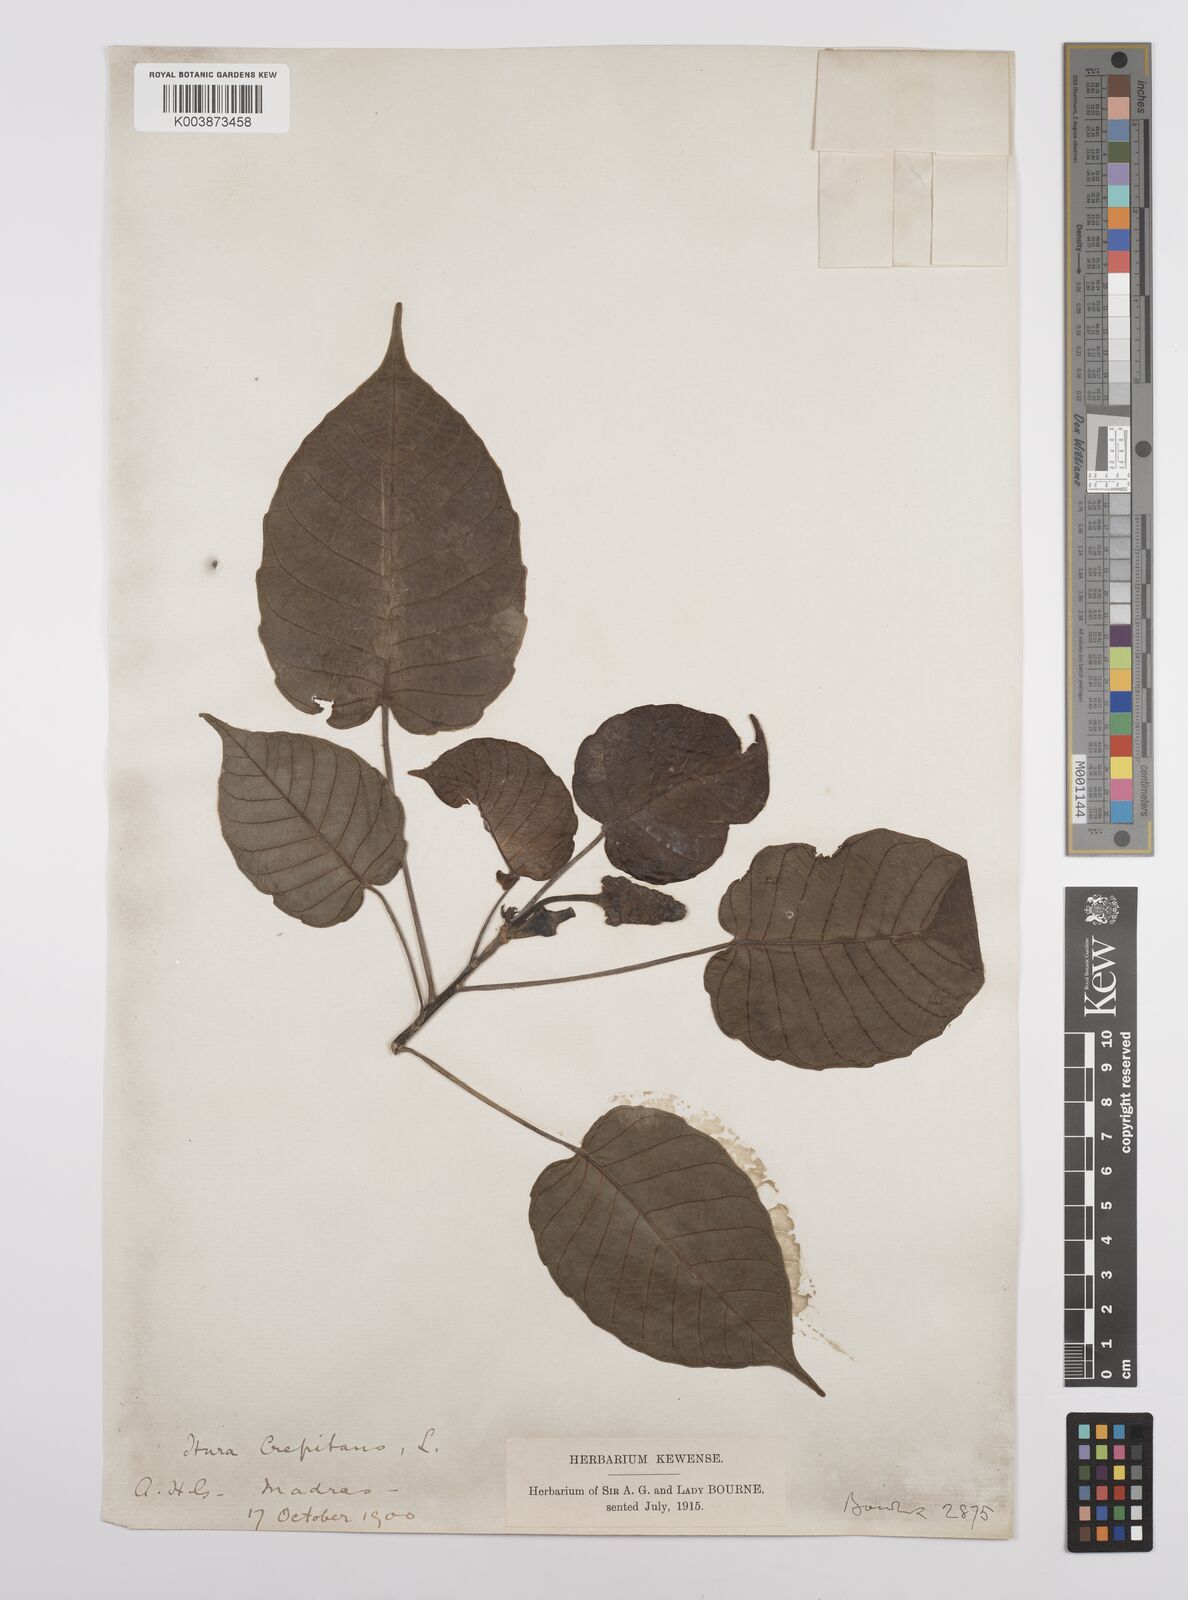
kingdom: Plantae
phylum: Tracheophyta
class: Magnoliopsida
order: Malpighiales
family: Euphorbiaceae
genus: Hura
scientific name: Hura crepitans
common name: Sandboxtree
